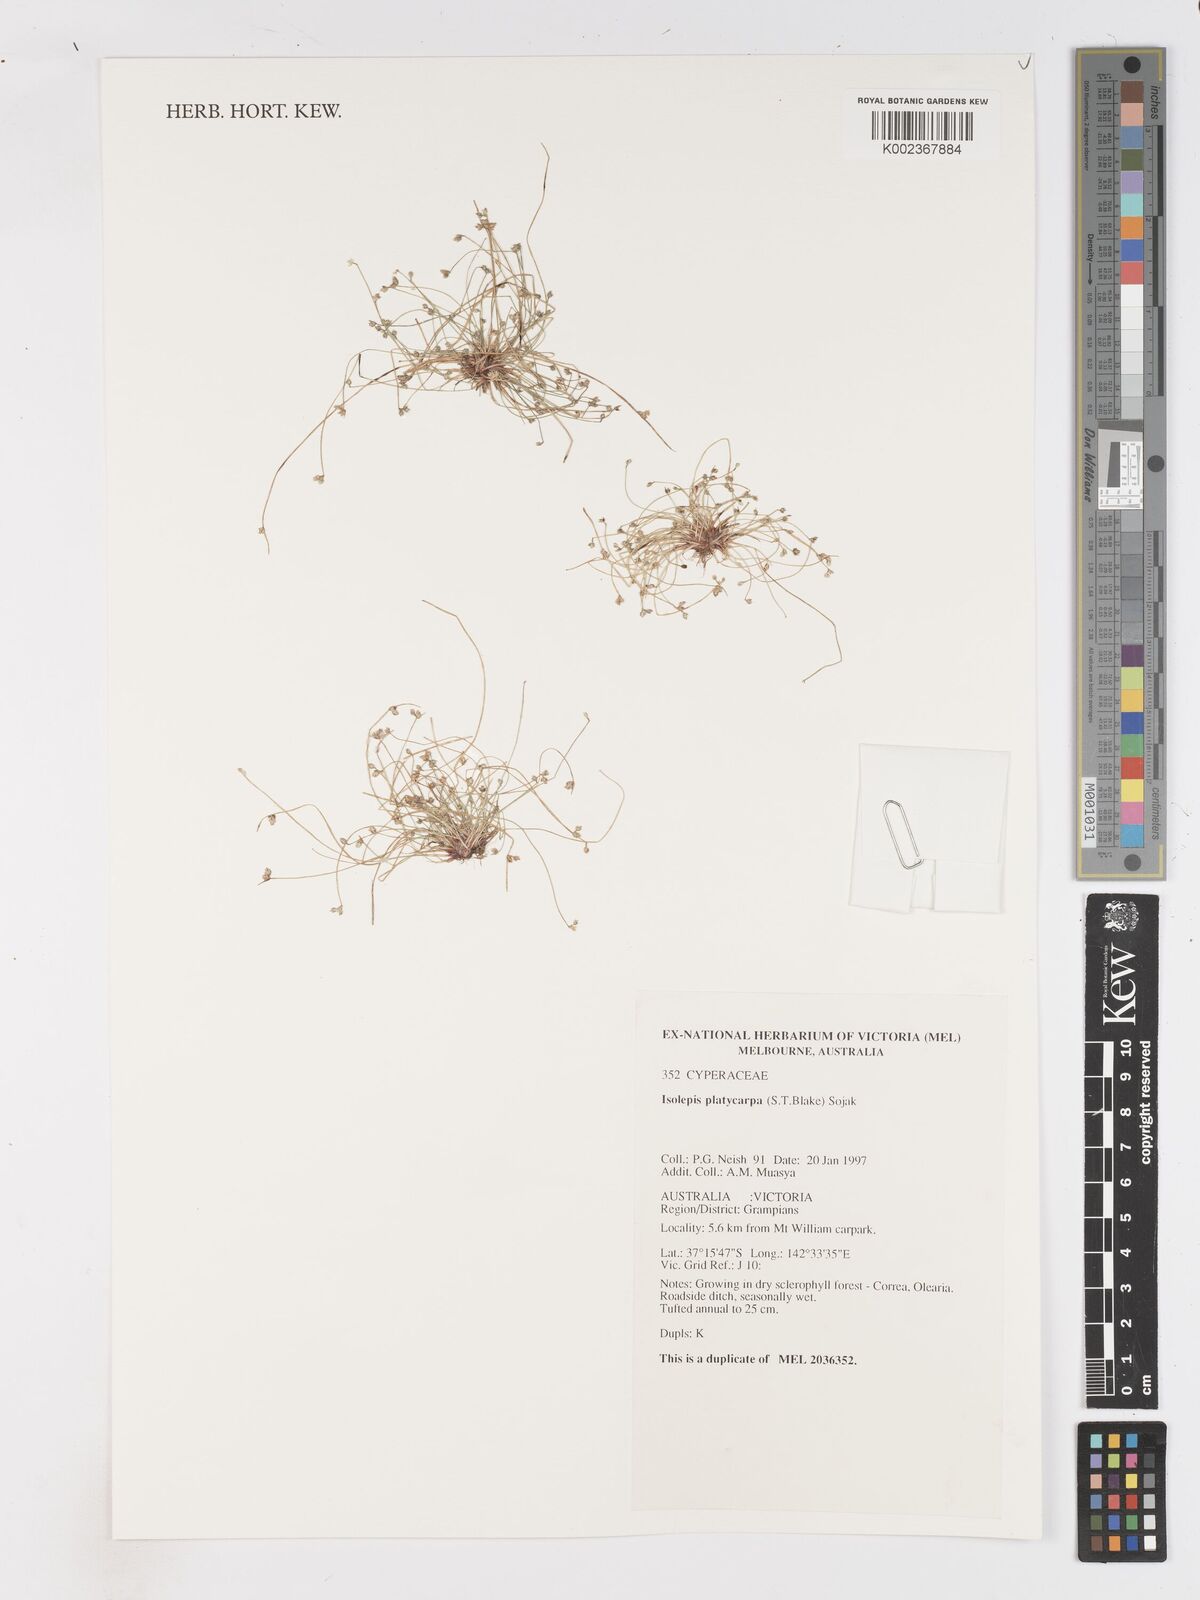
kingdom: Plantae
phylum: Tracheophyta
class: Liliopsida
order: Poales
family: Cyperaceae
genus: Isolepis
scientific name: Isolepis cernua
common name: Slender club-rush
